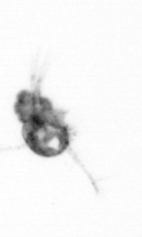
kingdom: Animalia
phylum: Arthropoda
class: Maxillopoda
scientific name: Maxillopoda
